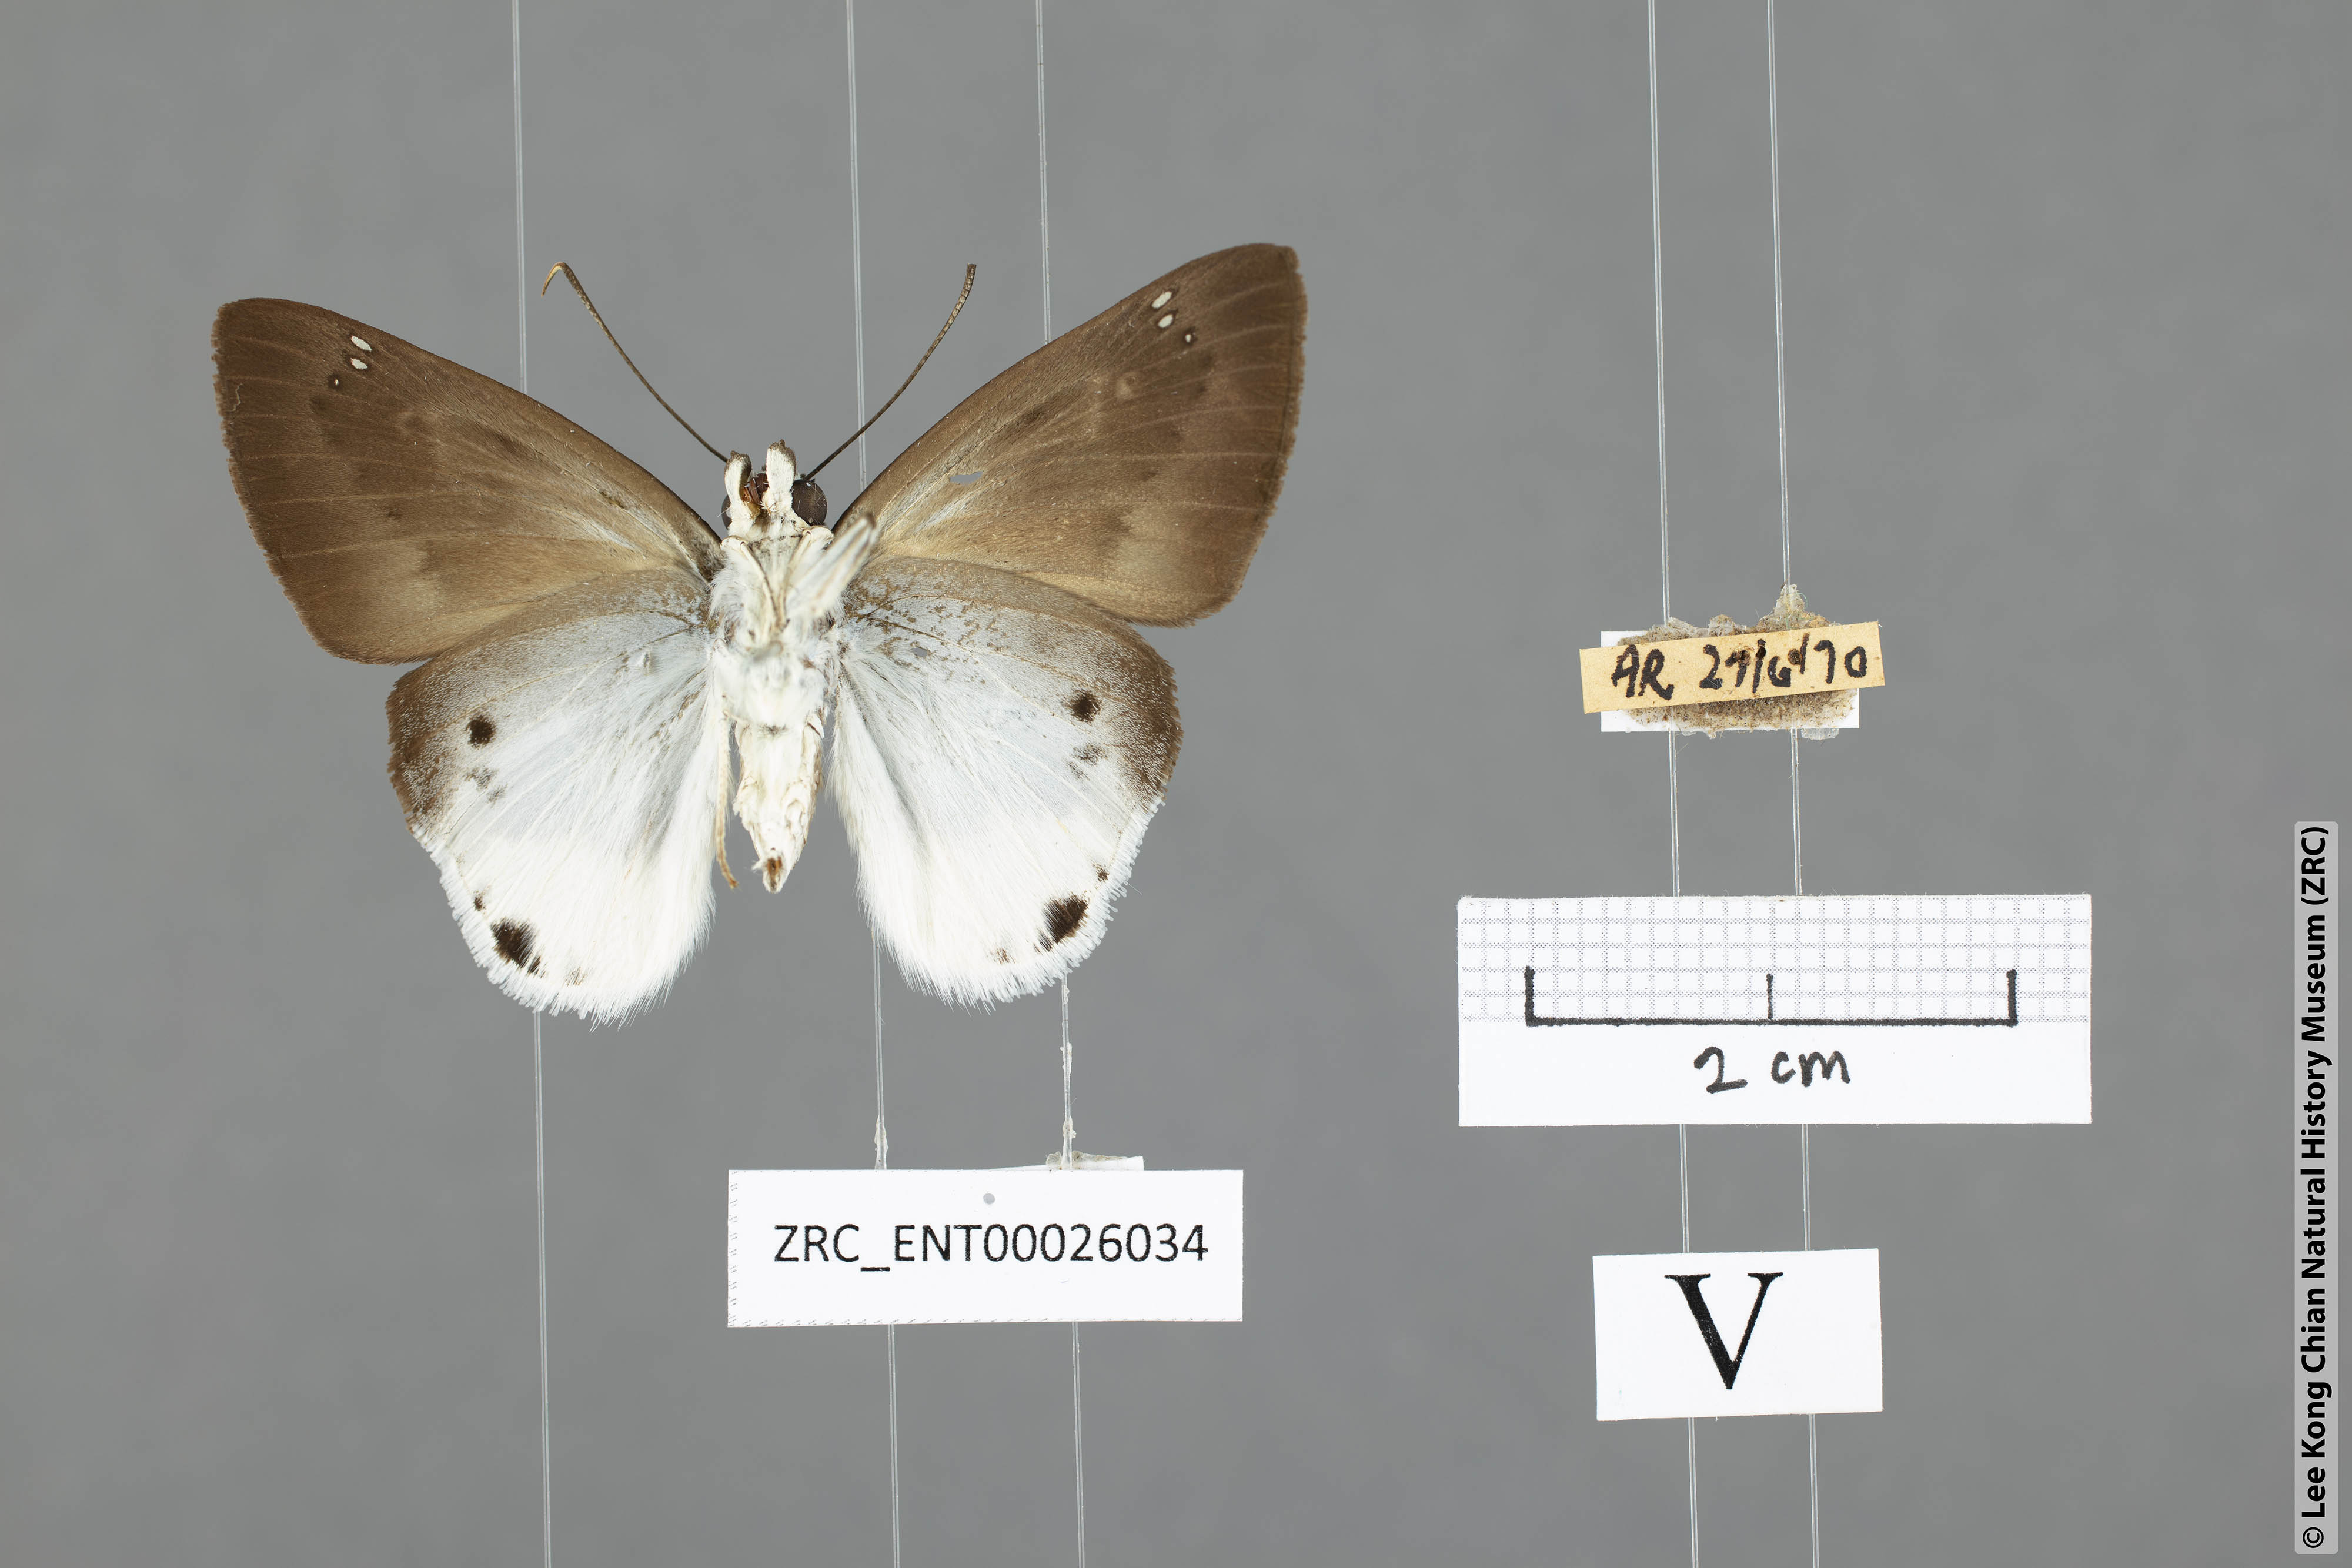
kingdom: Animalia
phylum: Arthropoda
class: Insecta
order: Lepidoptera
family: Hesperiidae
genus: Tagiades
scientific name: Tagiades parra
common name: Straight snow flat
